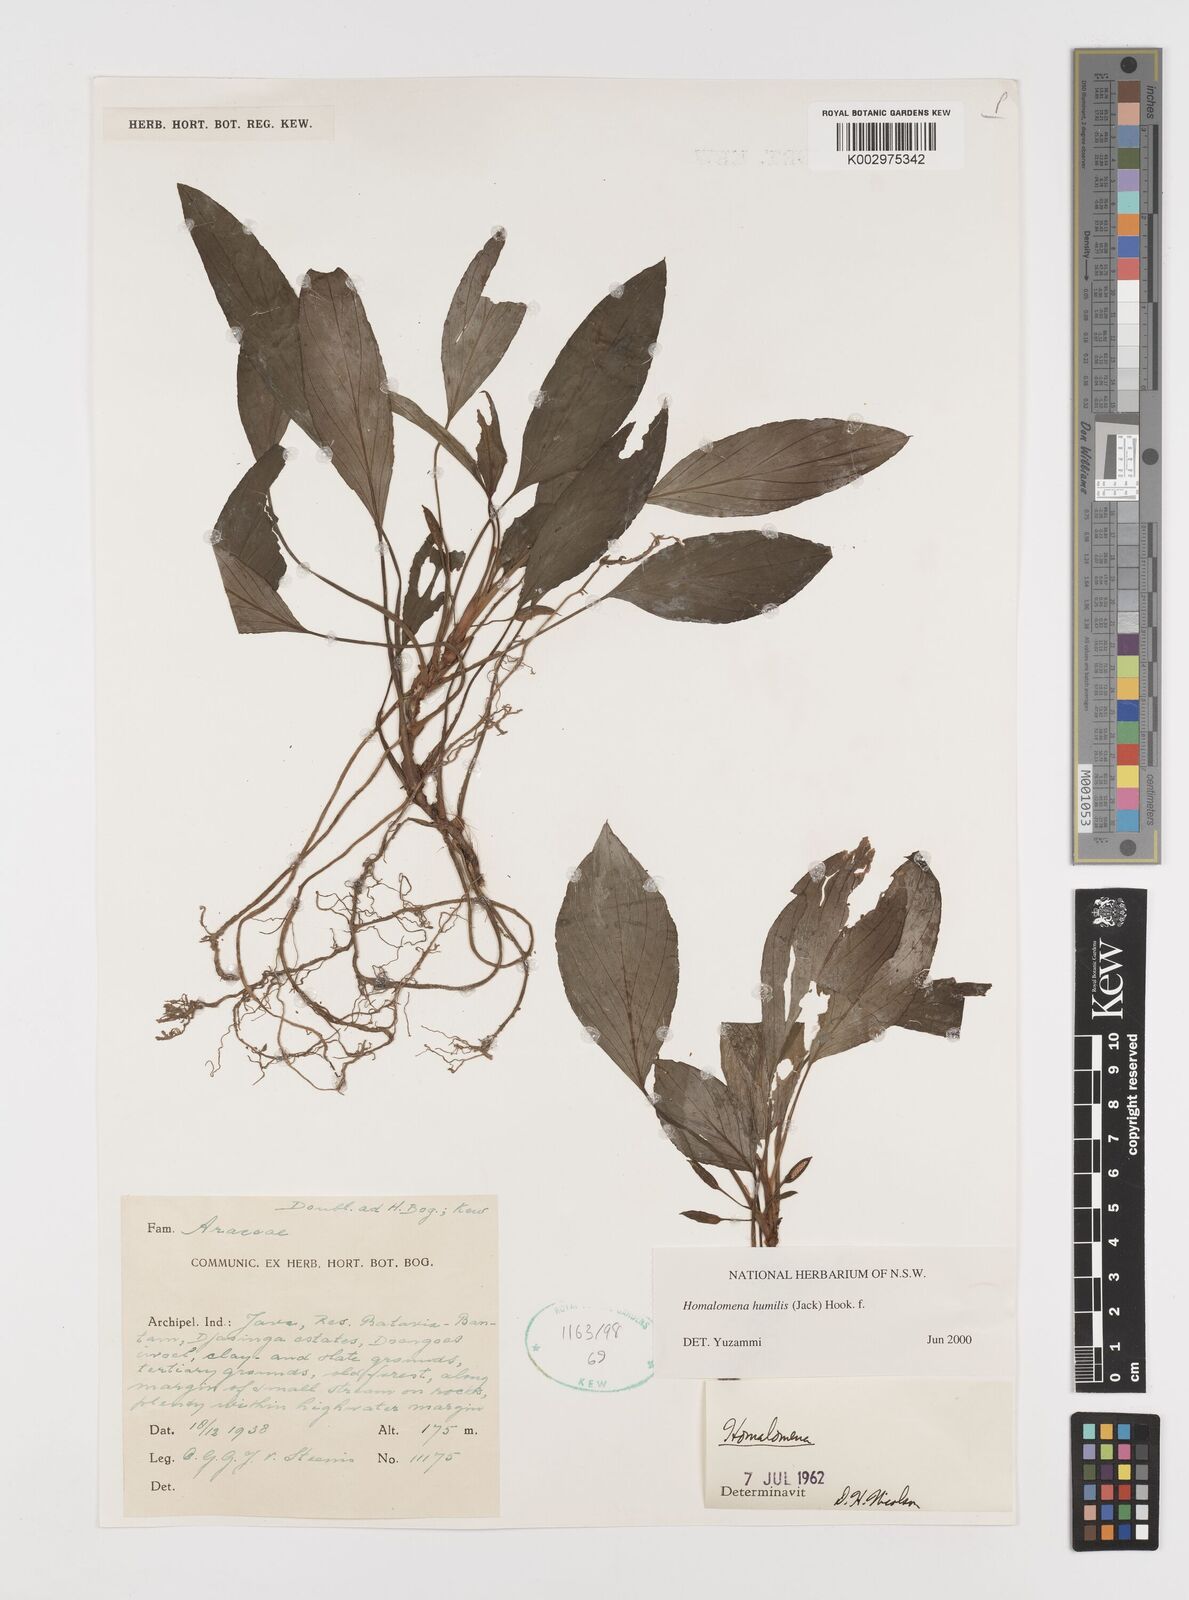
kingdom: Plantae
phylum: Tracheophyta
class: Liliopsida
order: Alismatales
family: Araceae
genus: Homalomena
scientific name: Homalomena humilis
